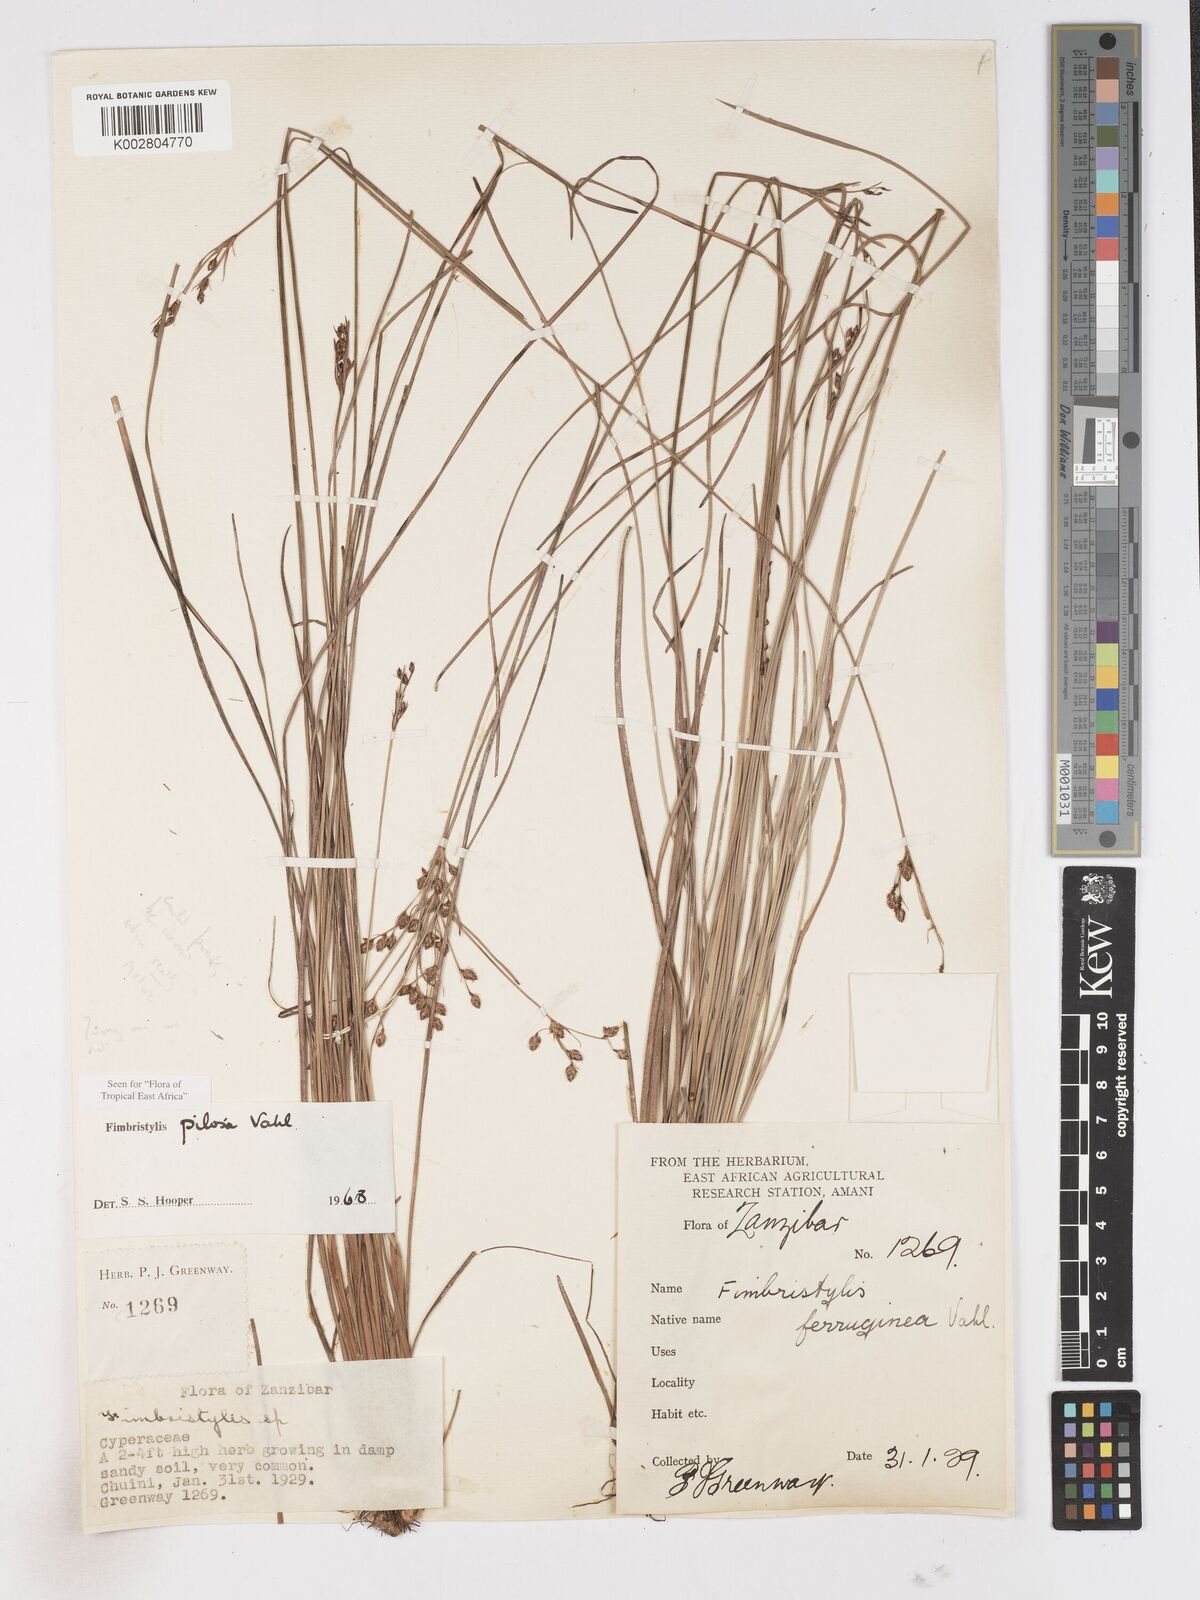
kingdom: Plantae
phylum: Tracheophyta
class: Liliopsida
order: Poales
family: Cyperaceae
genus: Fimbristylis
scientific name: Fimbristylis pilosa
